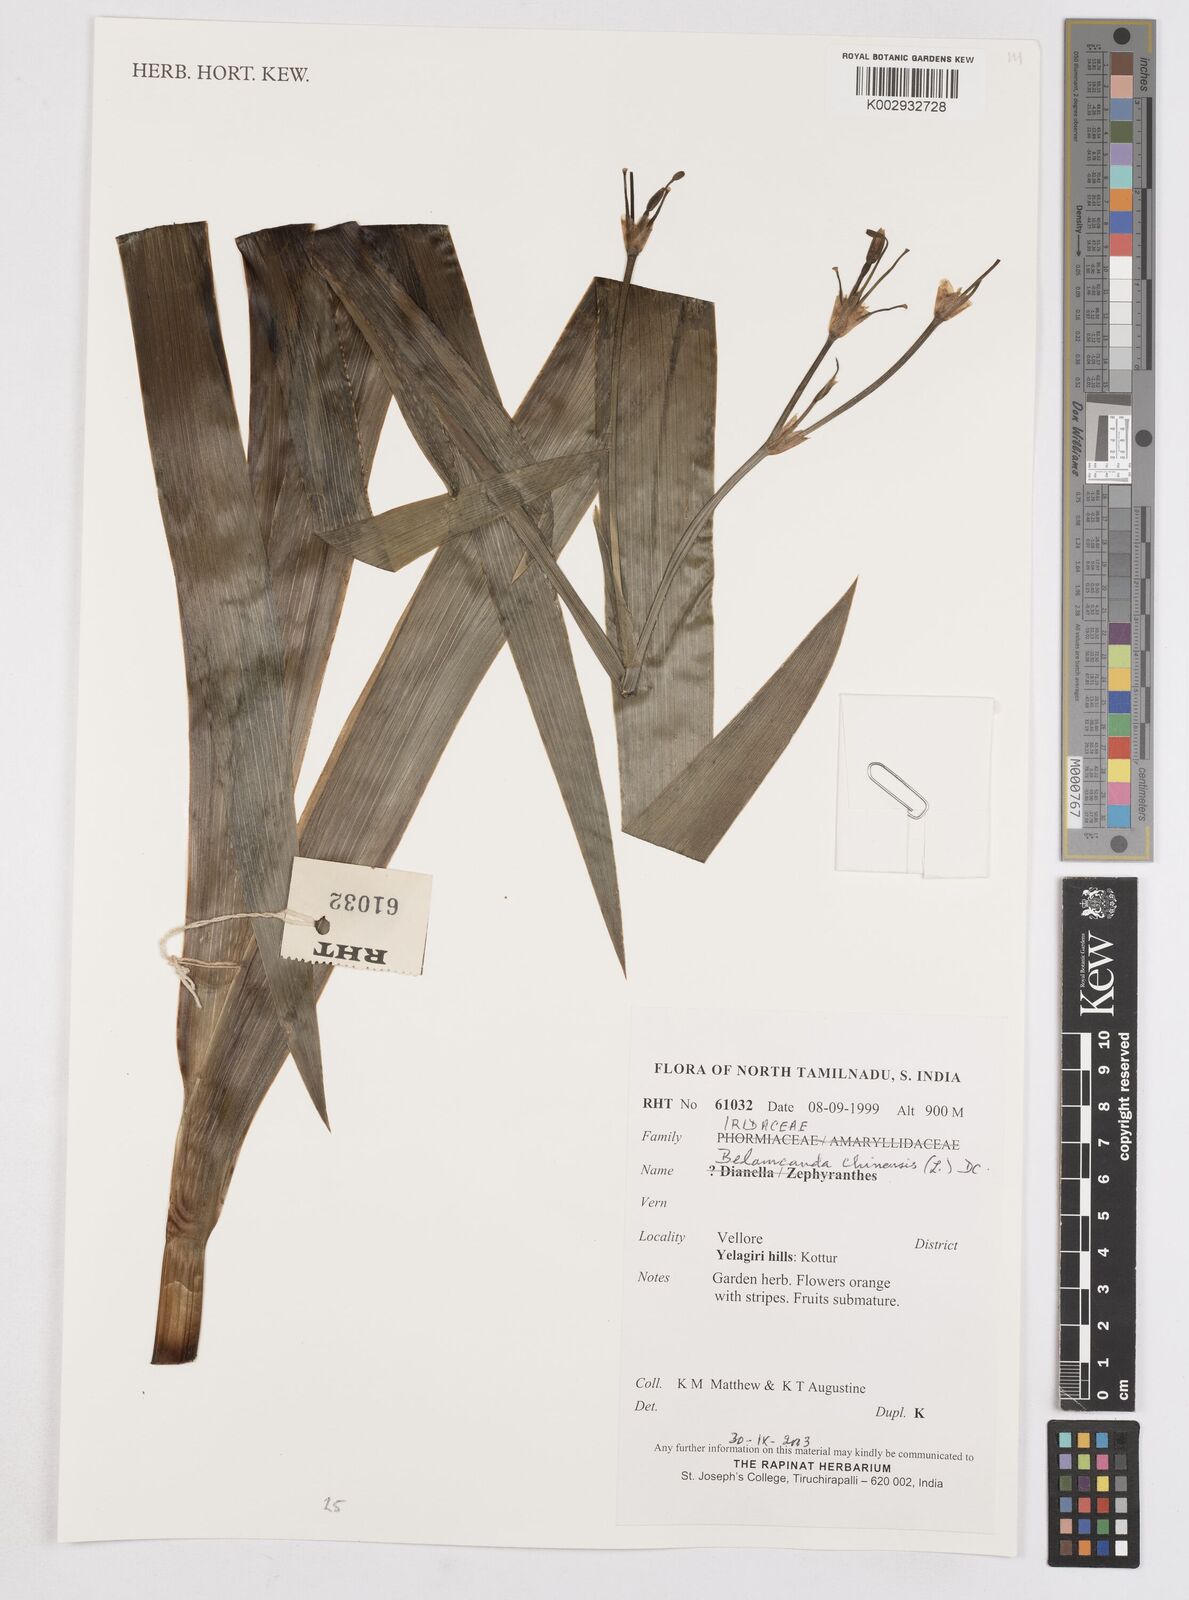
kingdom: Plantae
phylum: Tracheophyta
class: Liliopsida
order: Asparagales
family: Iridaceae
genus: Iris
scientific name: Iris
